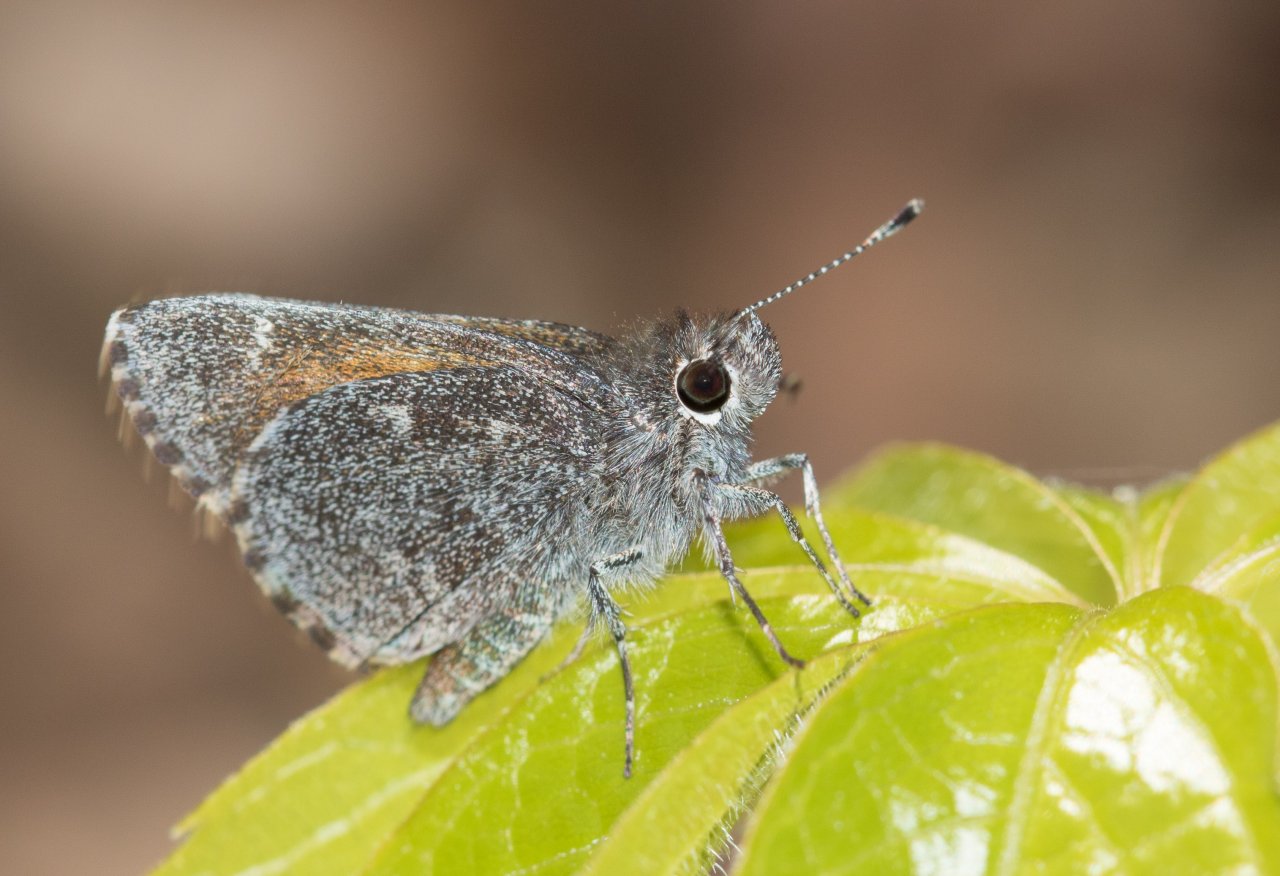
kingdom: Animalia
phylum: Arthropoda
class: Insecta
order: Lepidoptera
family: Hesperiidae
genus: Mastor
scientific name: Mastor aenus
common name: Bronze Roadside-Skipper
